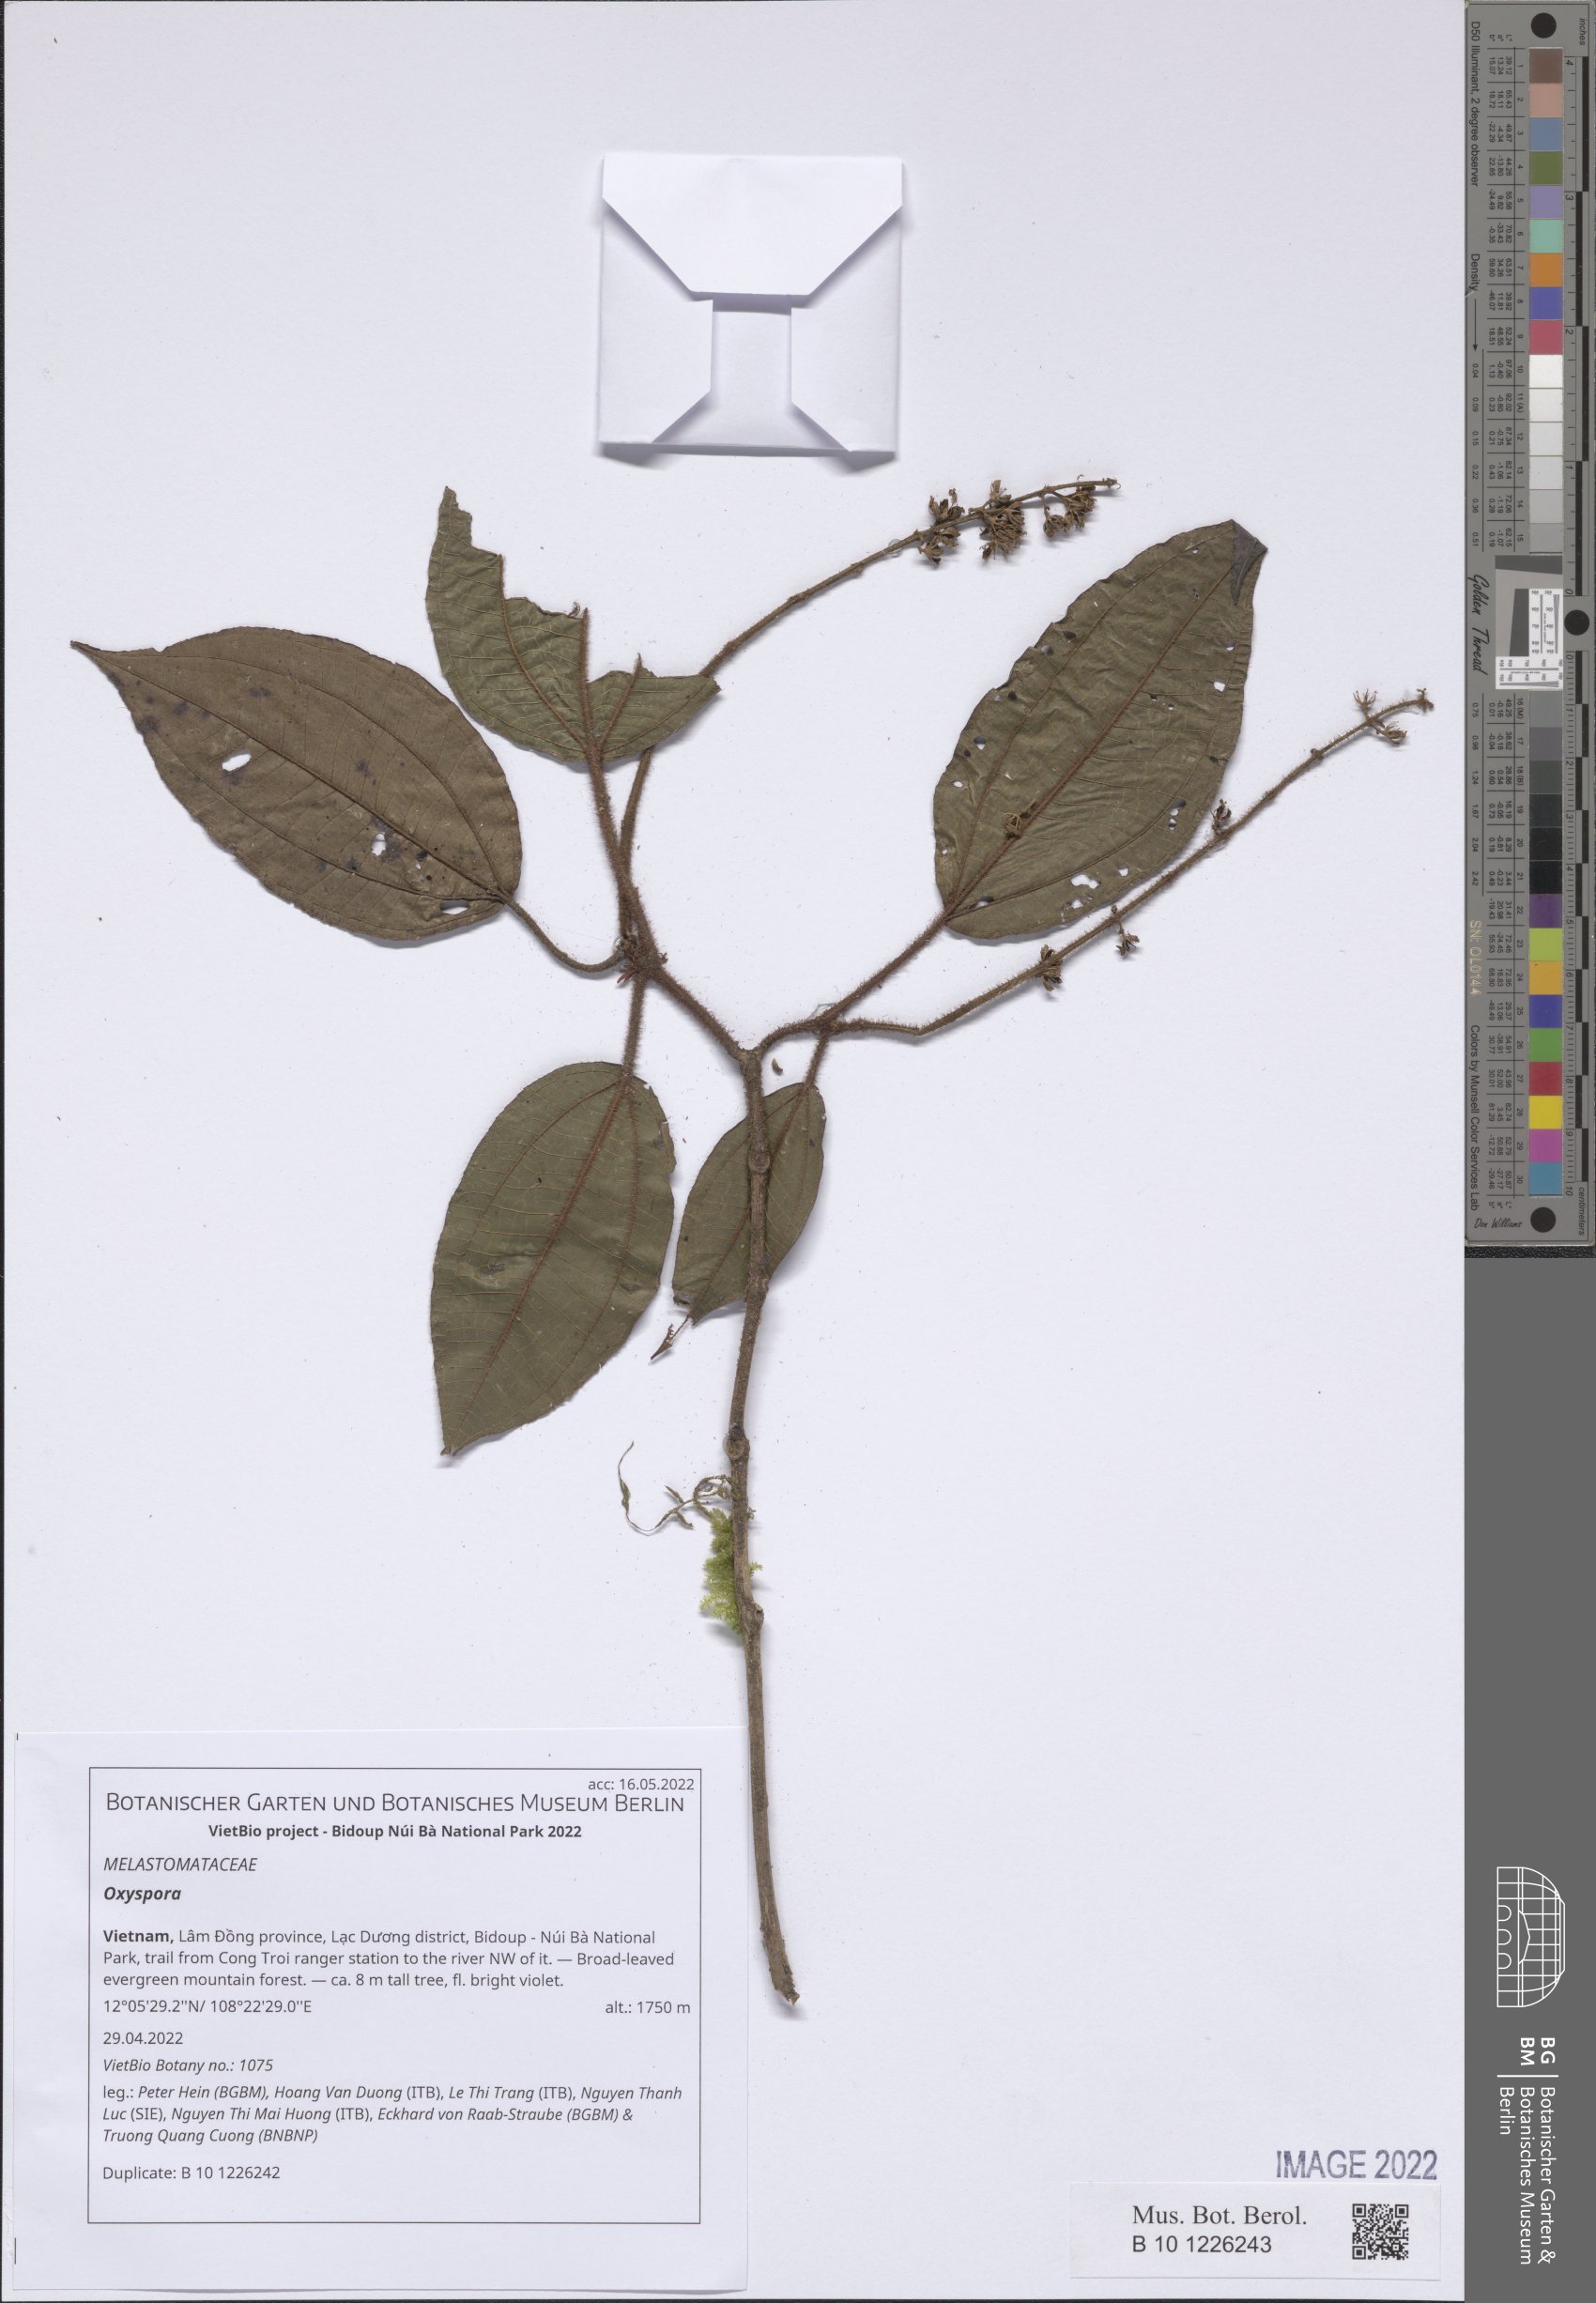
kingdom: Plantae
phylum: Tracheophyta
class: Magnoliopsida
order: Myrtales
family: Melastomataceae
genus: Oxyspora
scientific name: Oxyspora
